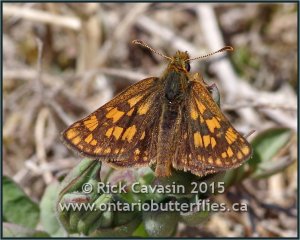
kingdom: Animalia
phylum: Arthropoda
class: Insecta
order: Lepidoptera
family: Hesperiidae
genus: Carterocephalus
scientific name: Carterocephalus palaemon
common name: Chequered Skipper
